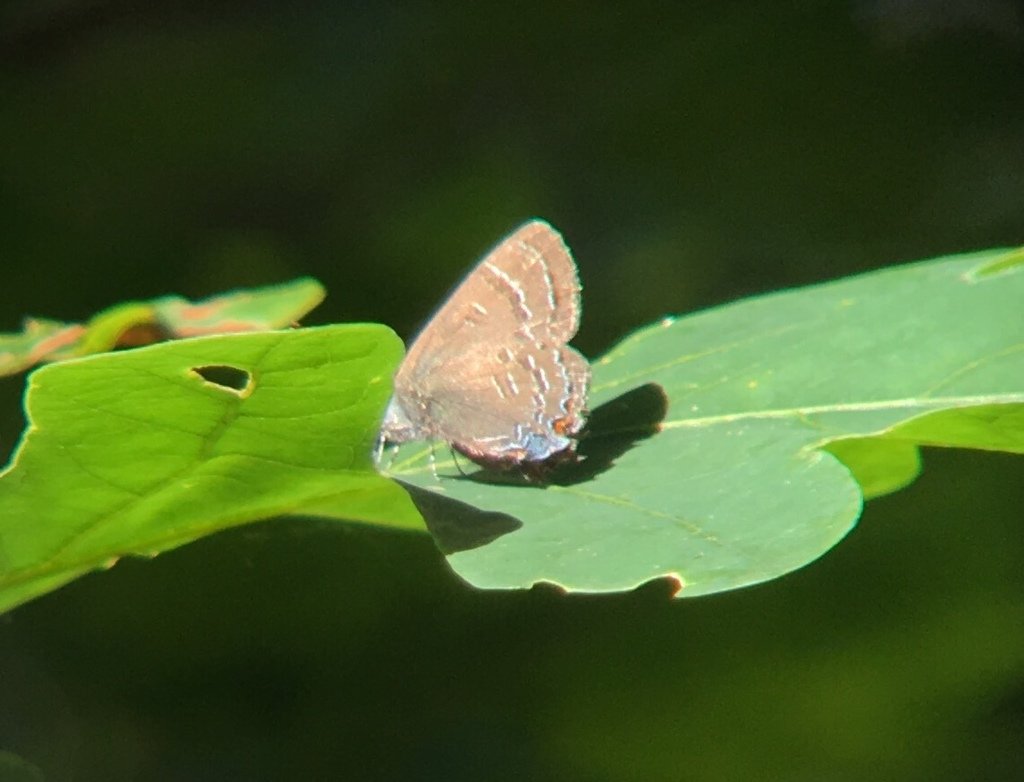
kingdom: Animalia
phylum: Arthropoda
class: Insecta
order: Lepidoptera
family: Lycaenidae
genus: Satyrium
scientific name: Satyrium calanus
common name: Banded Hairstreak
